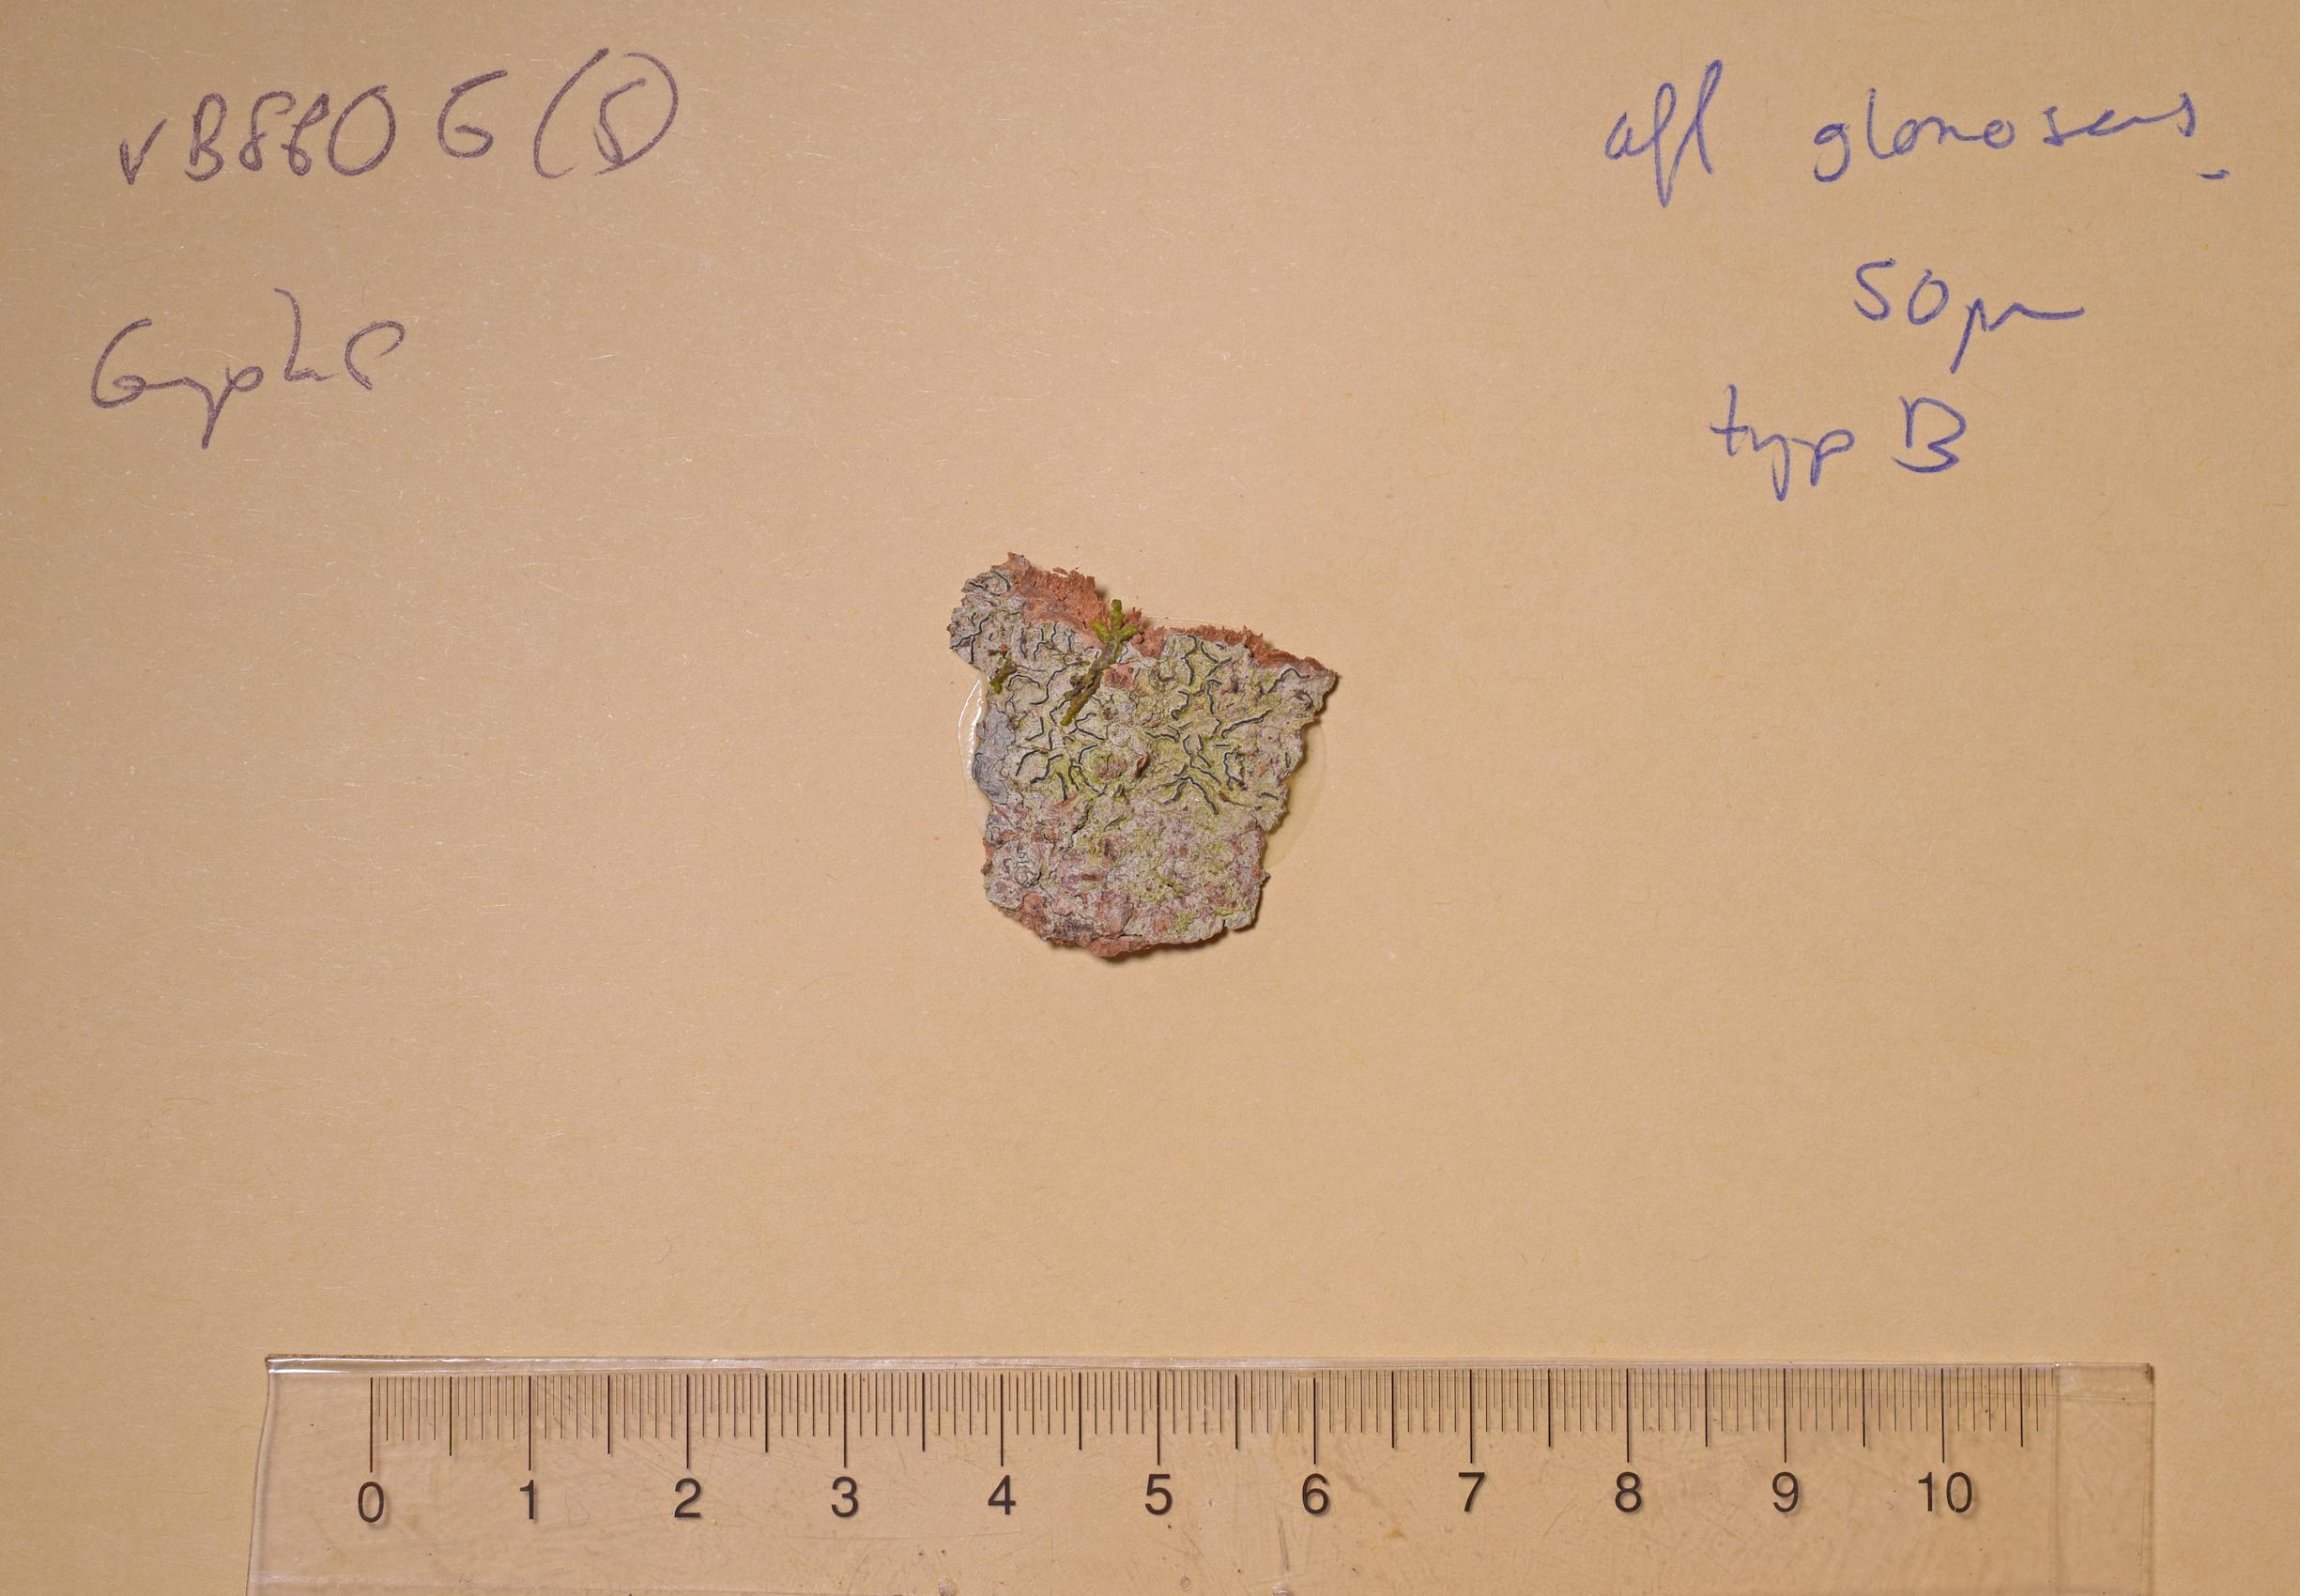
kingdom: Fungi
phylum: Ascomycota
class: Lecanoromycetes
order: Ostropales
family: Graphidaceae
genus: Graphis
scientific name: Graphis
